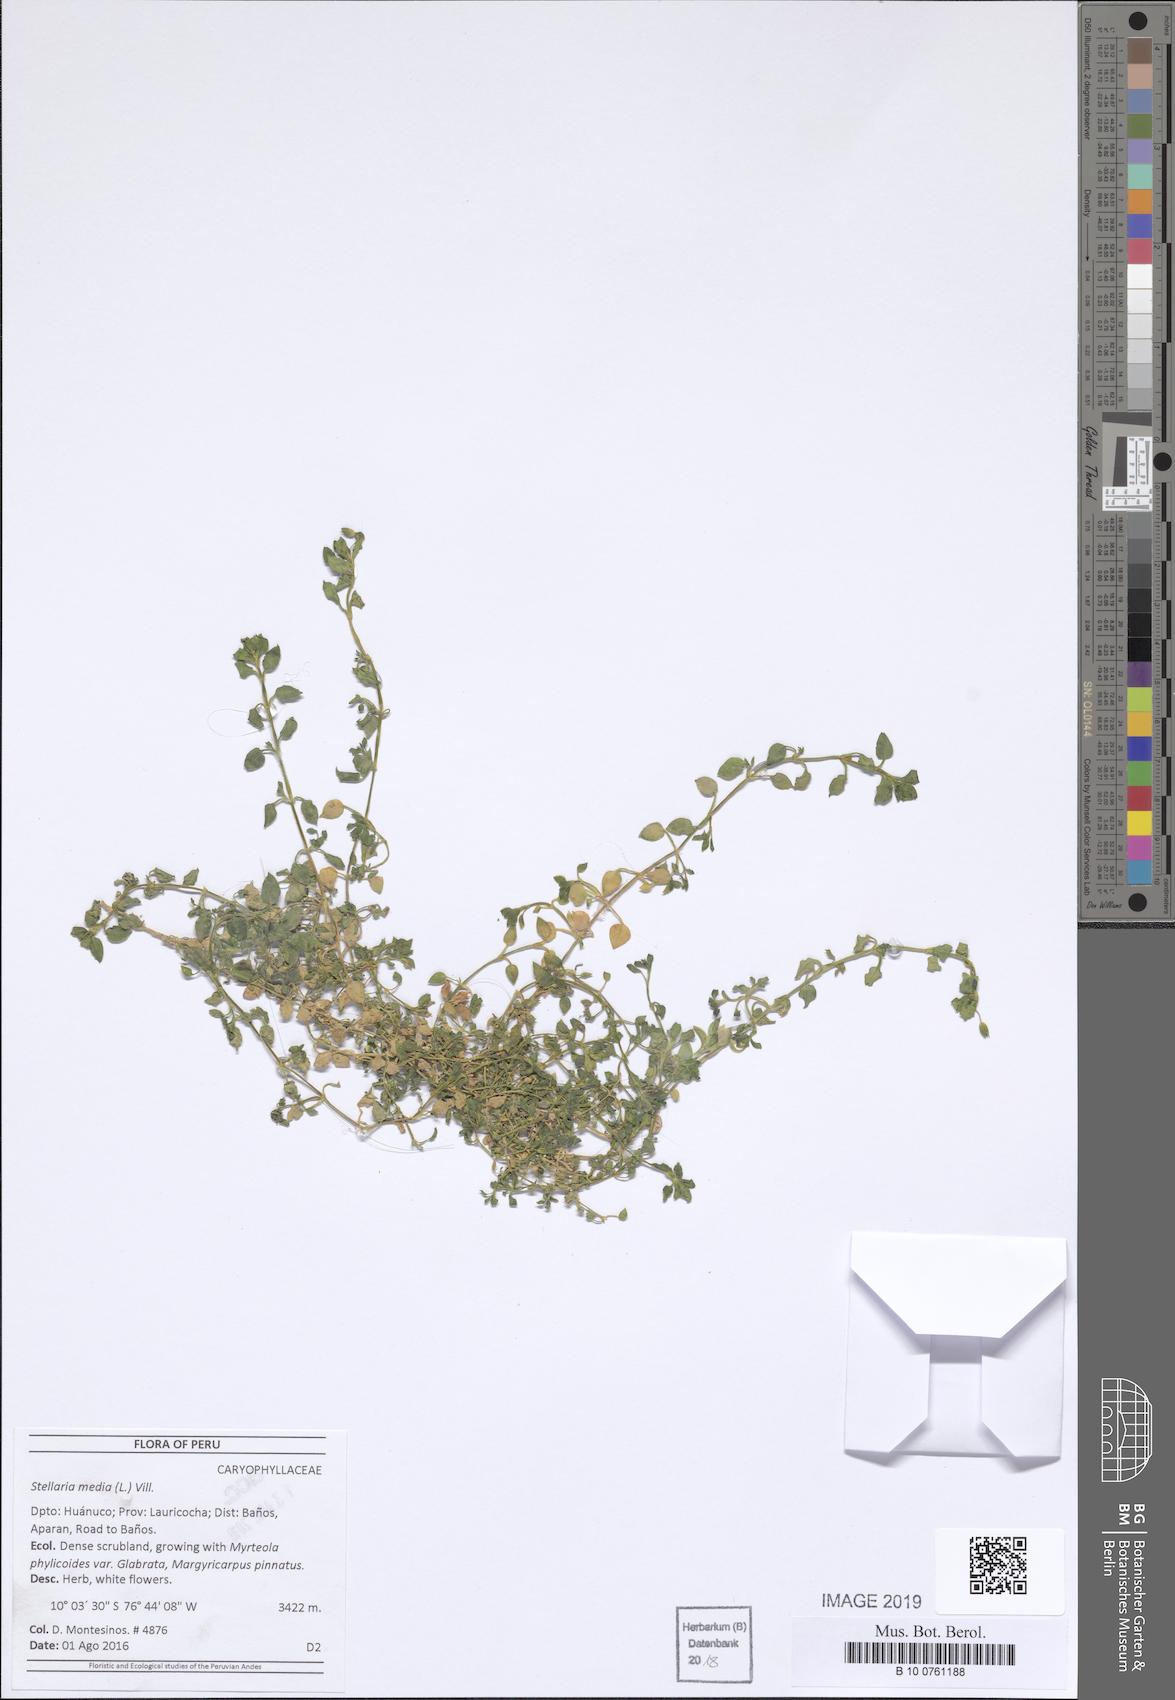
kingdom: Plantae
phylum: Tracheophyta
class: Magnoliopsida
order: Caryophyllales
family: Caryophyllaceae
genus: Stellaria
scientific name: Stellaria media
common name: Common chickweed
